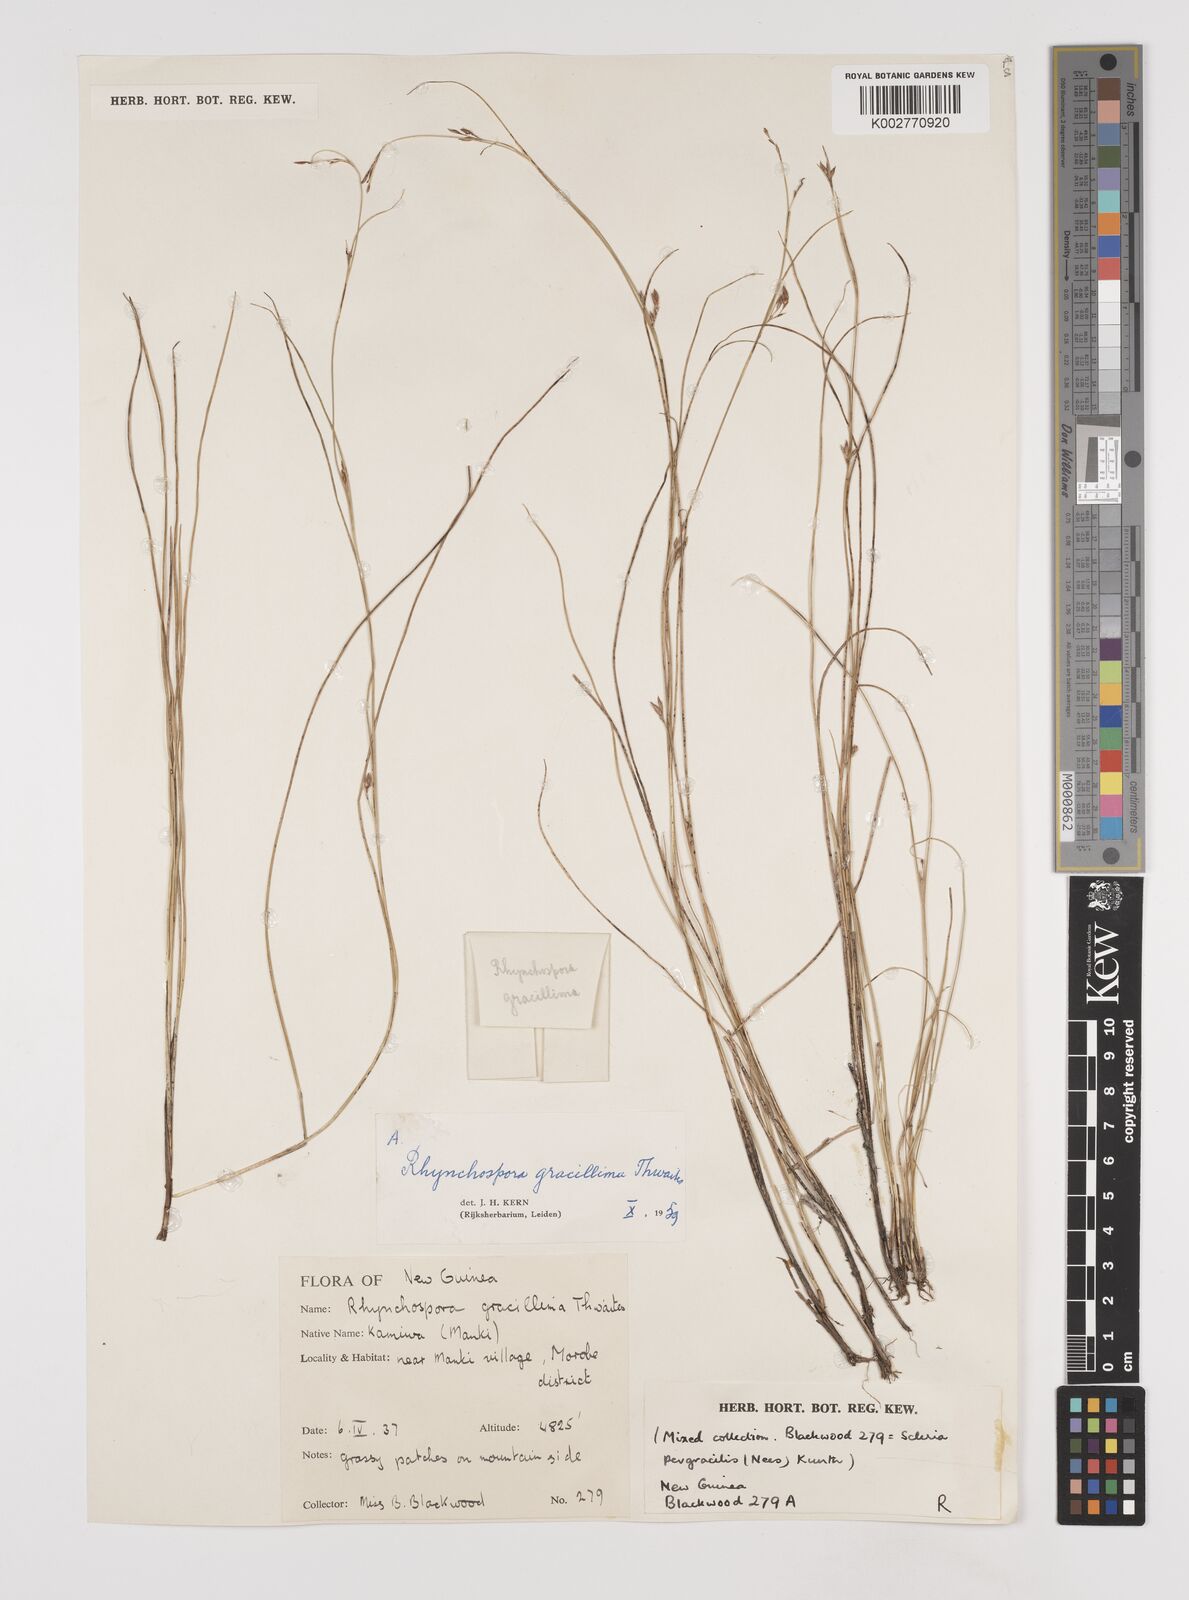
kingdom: Plantae
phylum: Tracheophyta
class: Liliopsida
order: Poales
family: Cyperaceae
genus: Rhynchospora
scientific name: Rhynchospora gracillima
